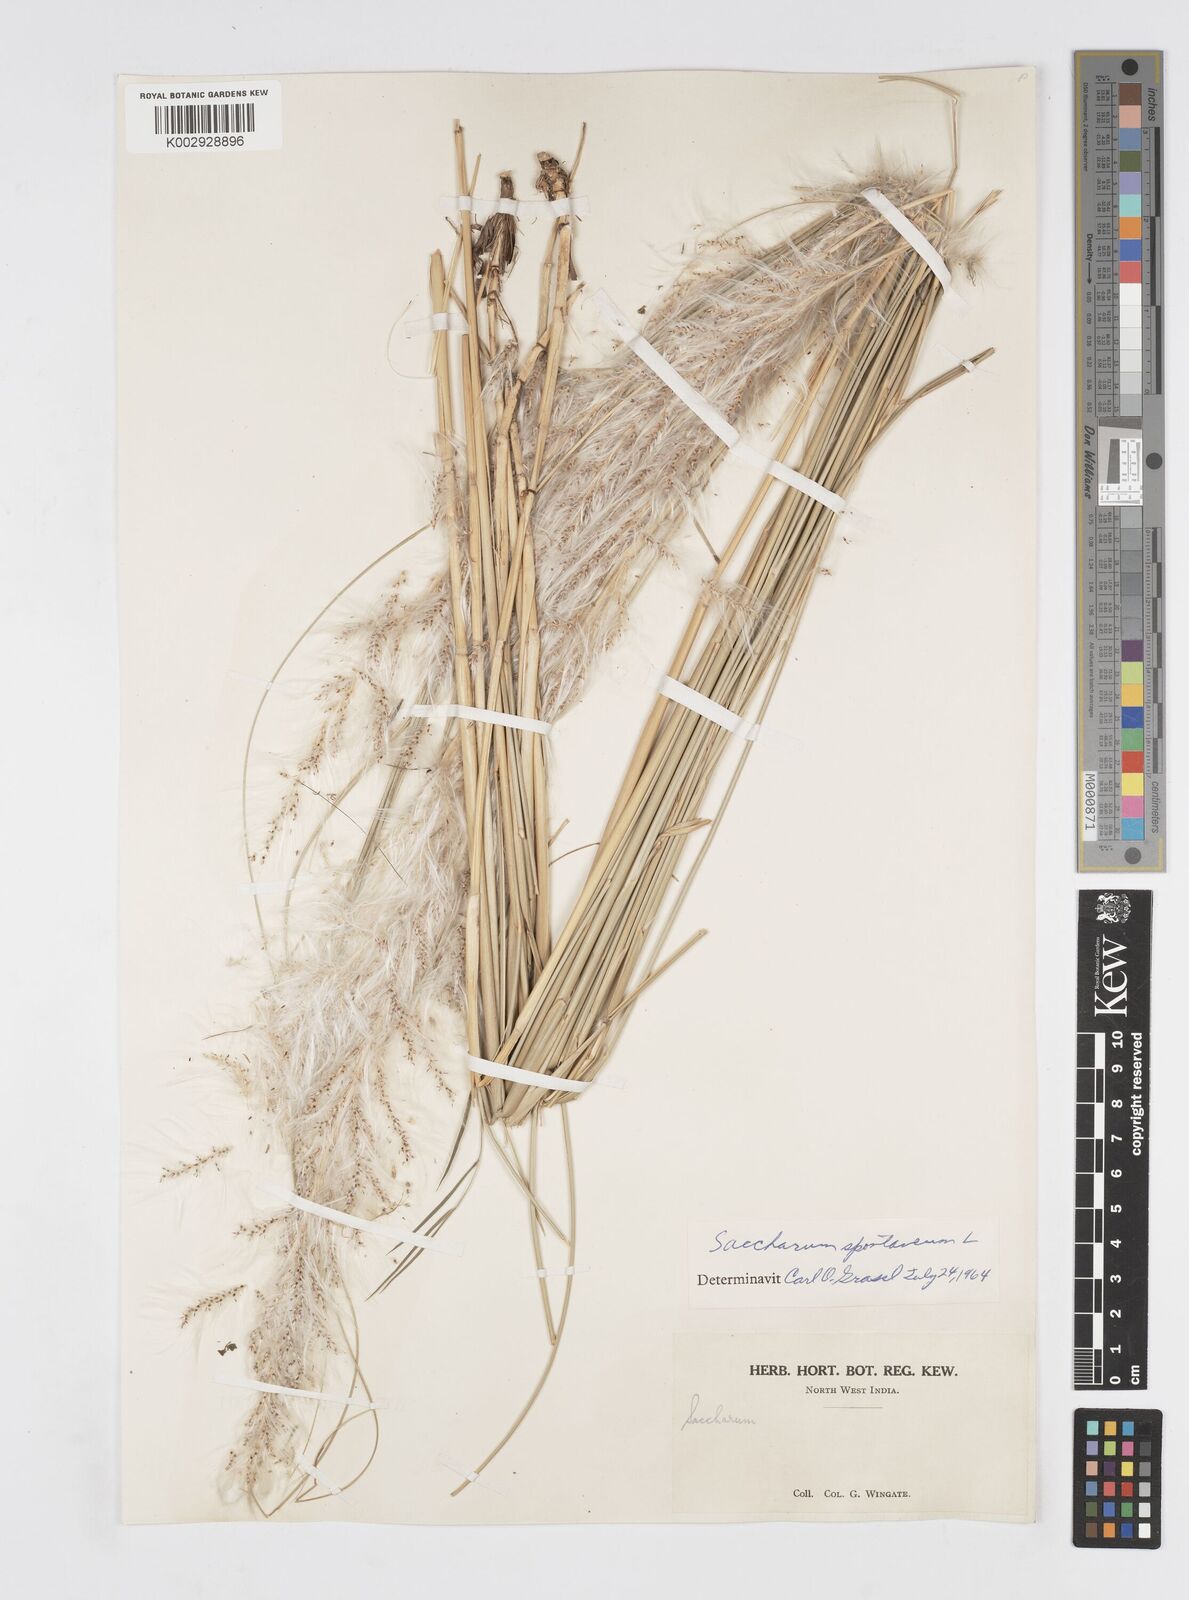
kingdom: Plantae
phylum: Tracheophyta
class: Liliopsida
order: Poales
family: Poaceae
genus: Saccharum
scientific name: Saccharum spontaneum
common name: Wild sugarcane
